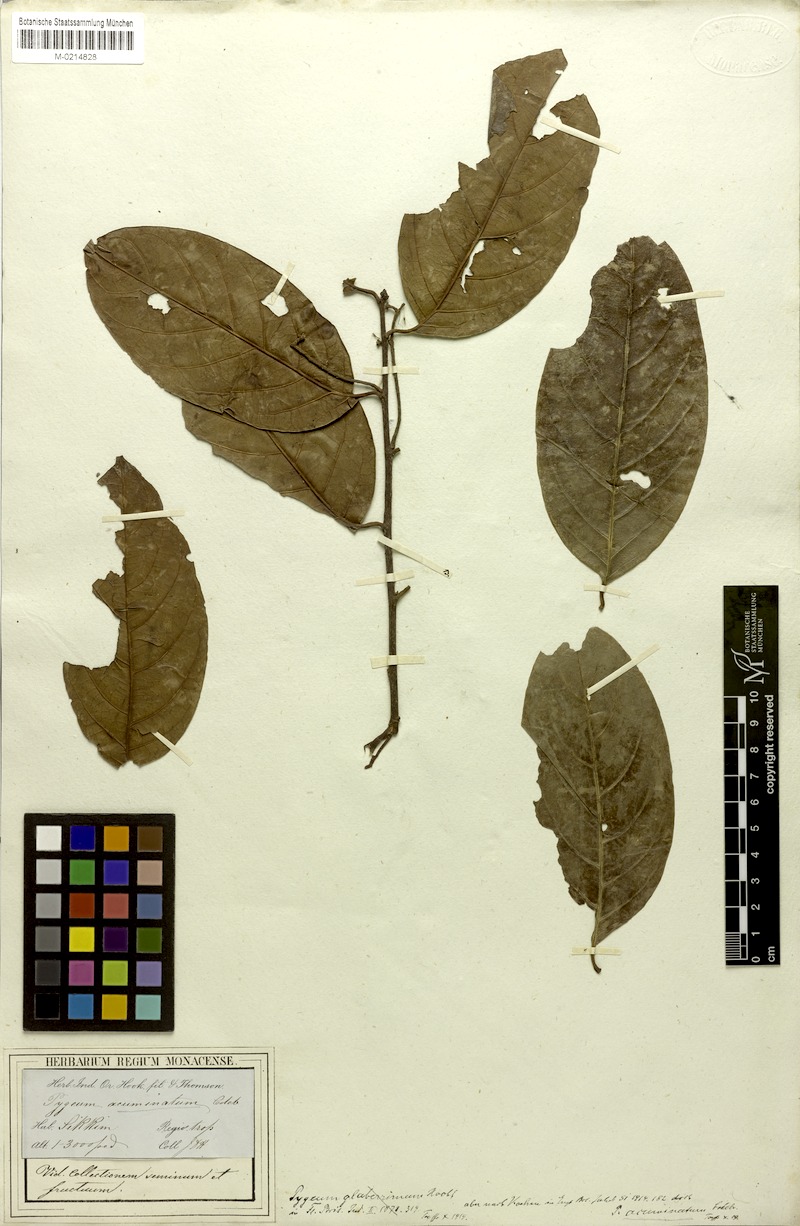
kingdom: Plantae
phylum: Tracheophyta
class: Magnoliopsida
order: Rosales
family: Rosaceae
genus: Prunus
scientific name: Prunus ceylanica
